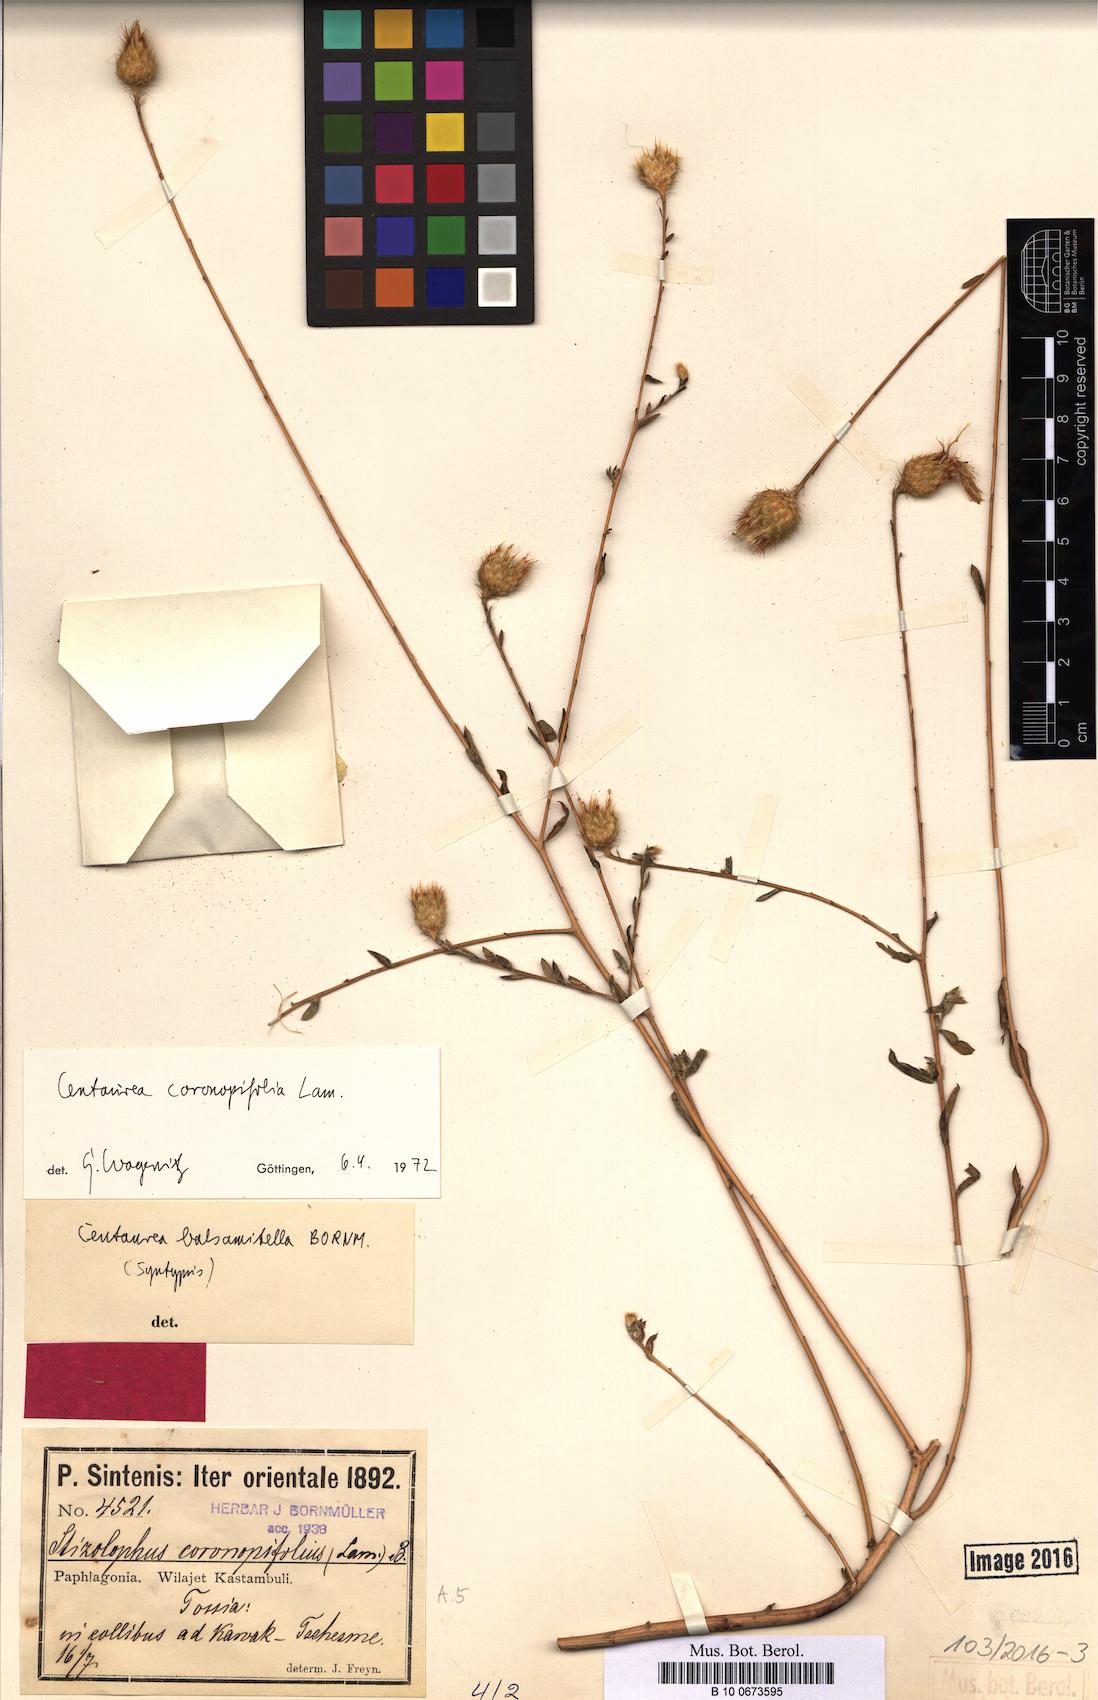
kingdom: Plantae
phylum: Tracheophyta
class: Magnoliopsida
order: Asterales
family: Asteraceae
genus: Stizolophus
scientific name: Stizolophus coronopifolius
